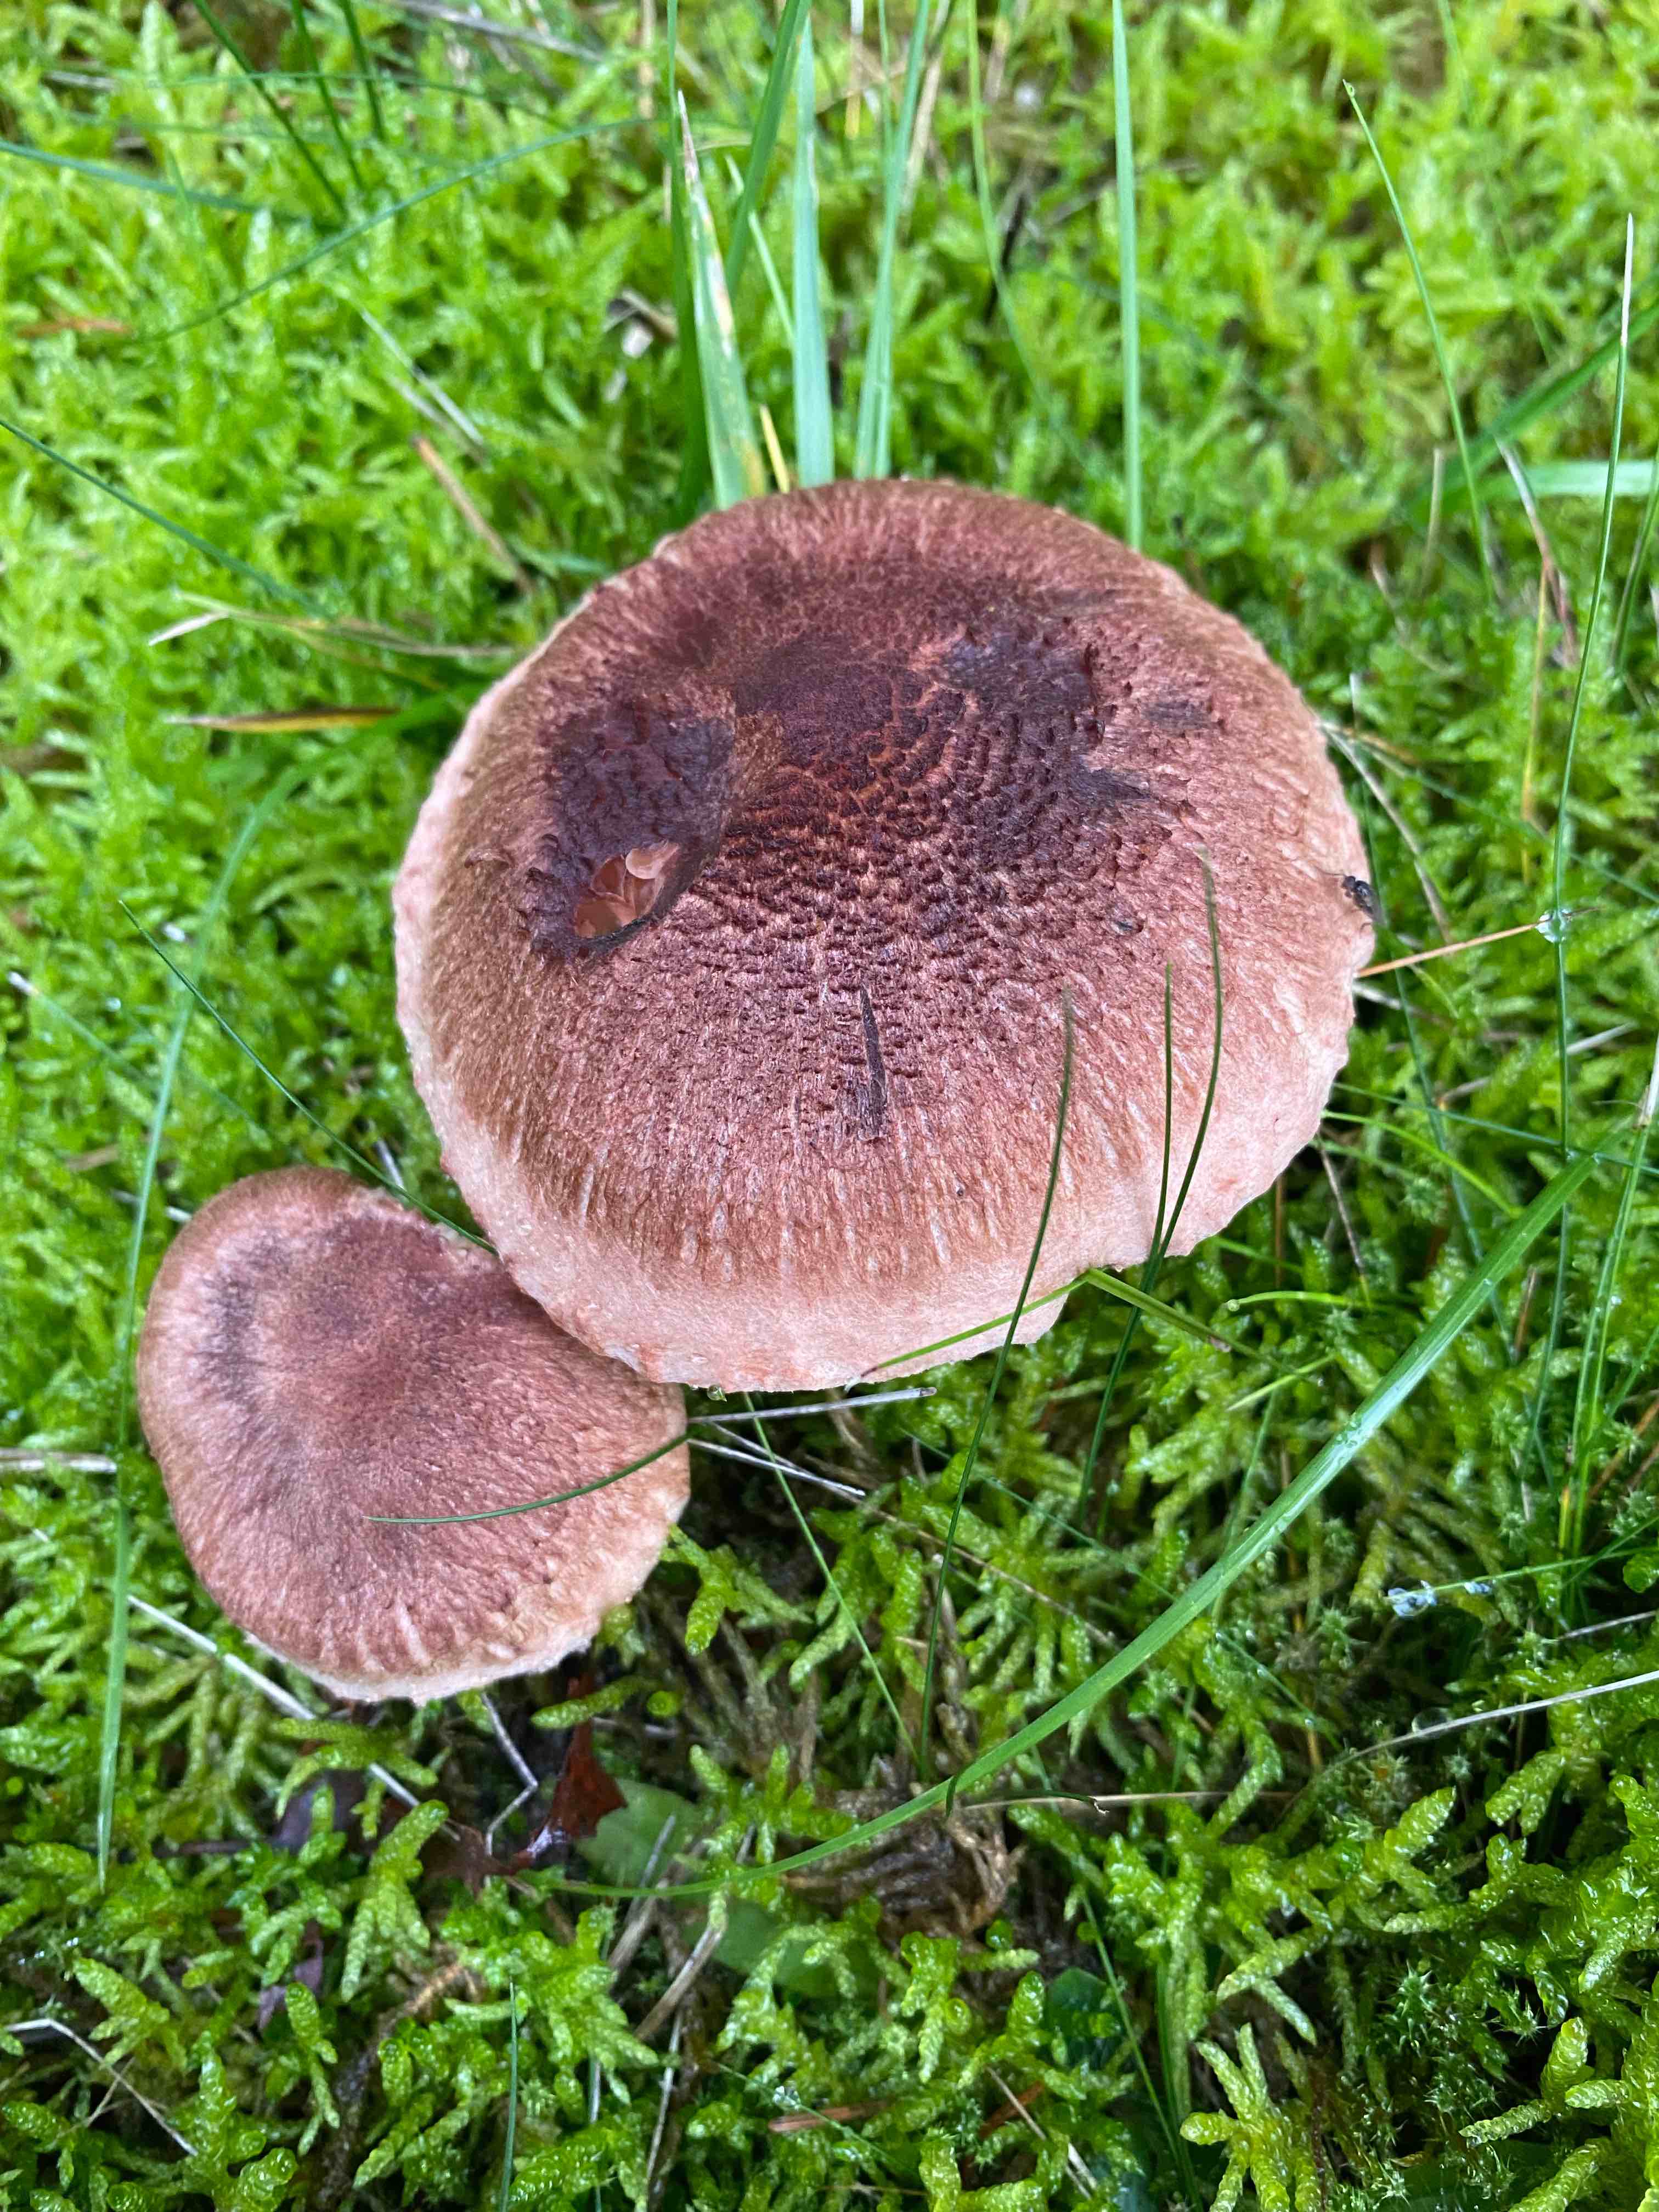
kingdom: Fungi
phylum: Basidiomycota
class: Agaricomycetes
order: Agaricales
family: Tricholomataceae
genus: Tricholoma
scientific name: Tricholoma vaccinum
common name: ko-ridderhat
